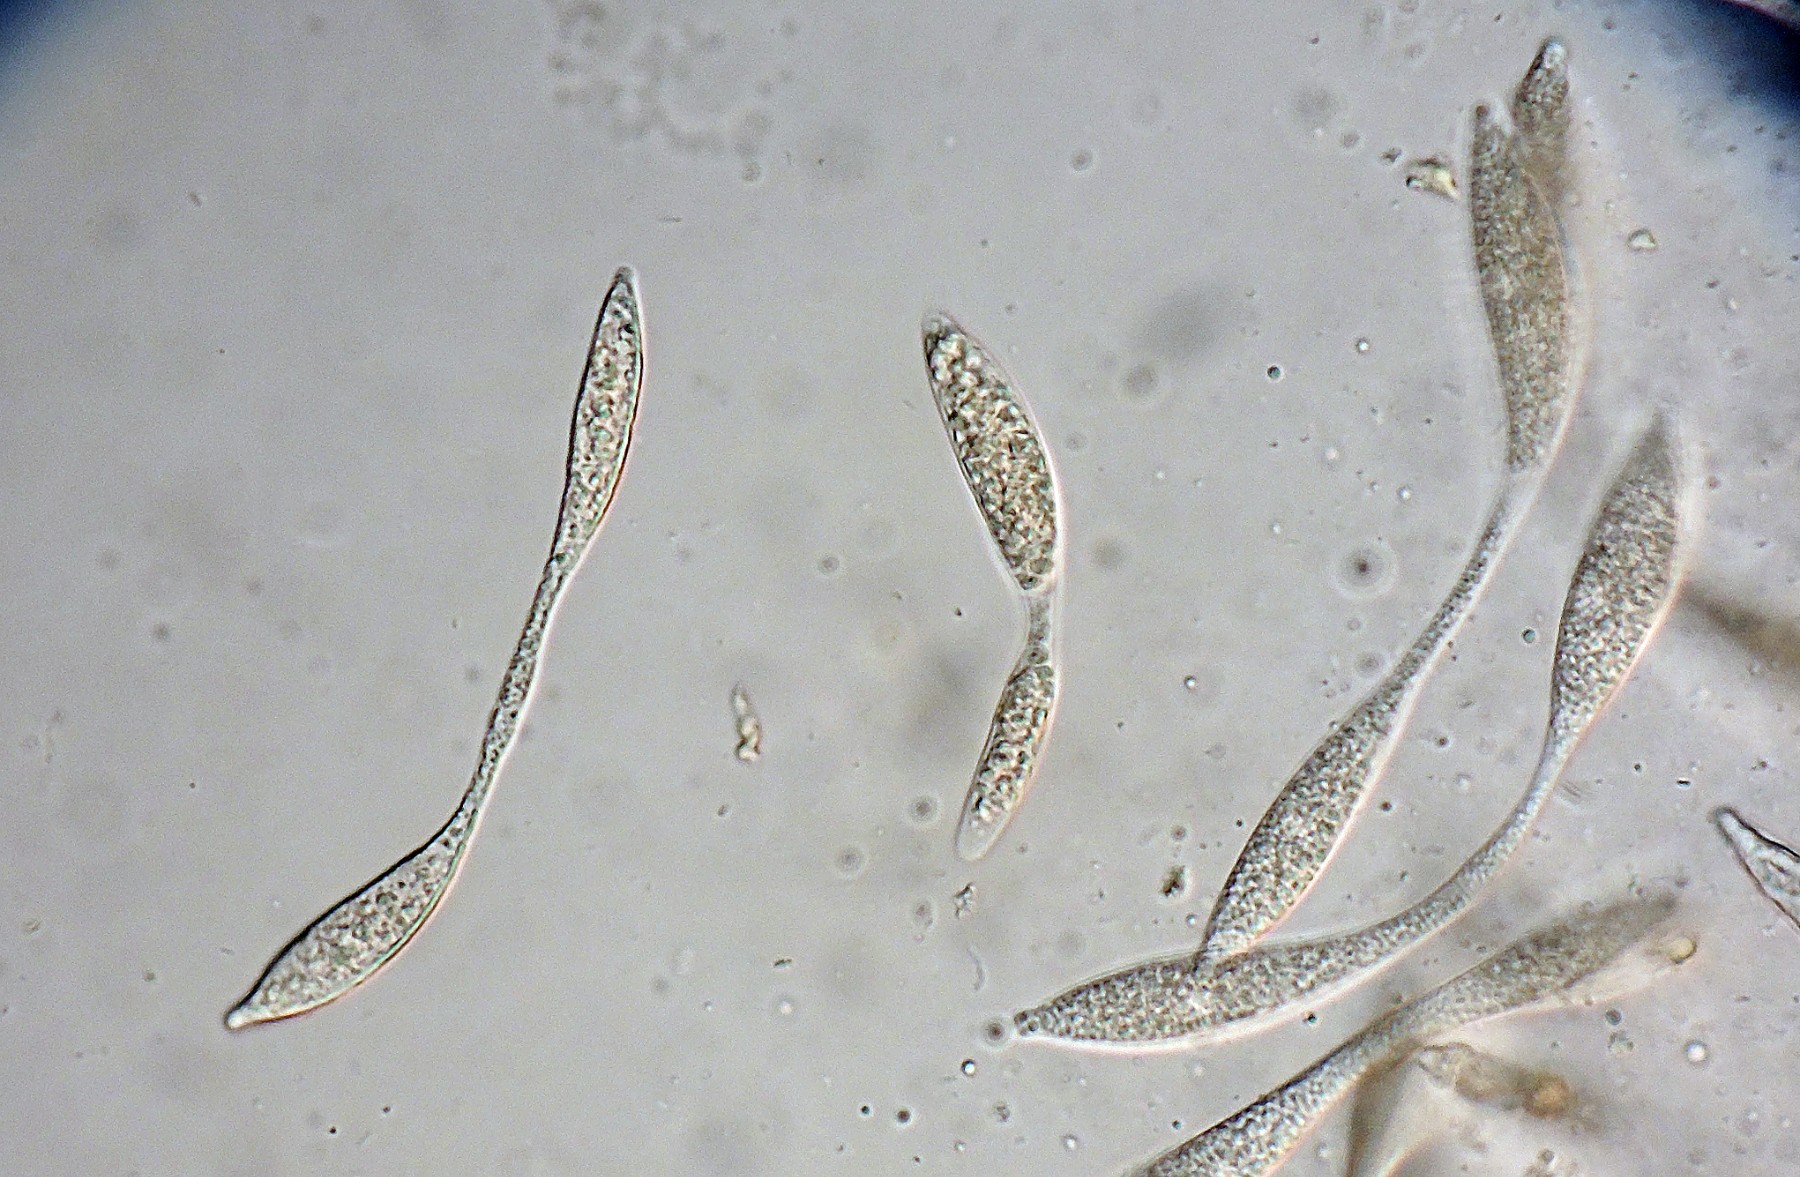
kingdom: Fungi
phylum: Ascomycota
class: Sordariomycetes
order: Xylariales
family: Vialaeaceae
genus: Vialaea
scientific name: Vialaea insculpta
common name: kristtornkerne
